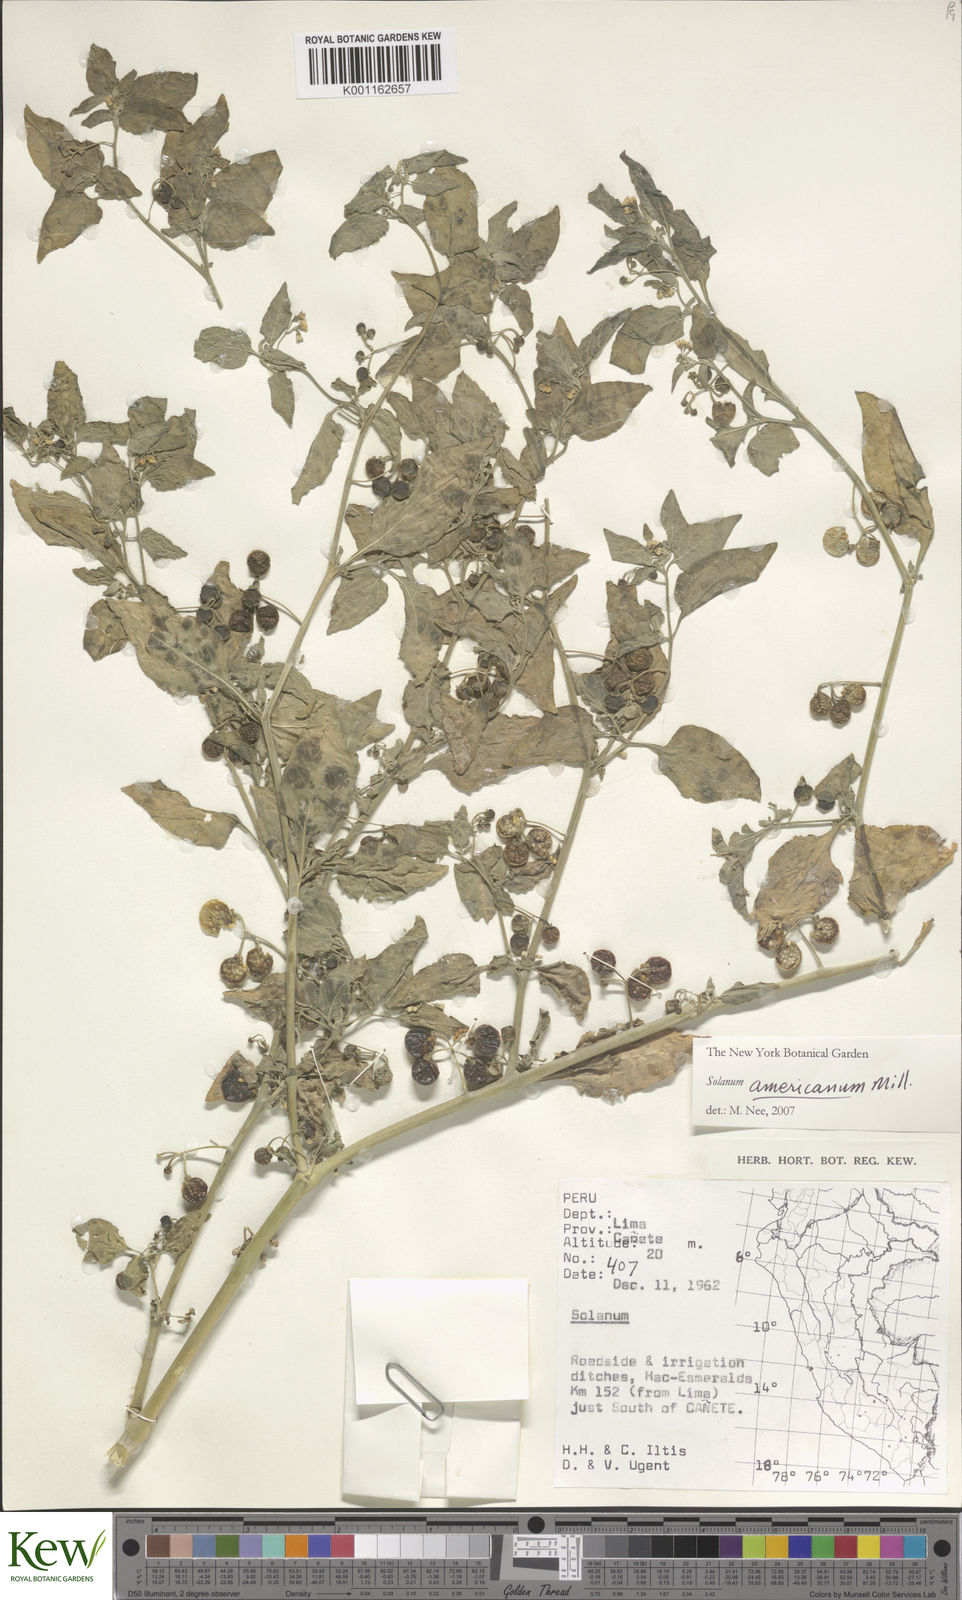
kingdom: Plantae
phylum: Tracheophyta
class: Magnoliopsida
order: Solanales
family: Solanaceae
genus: Solanum
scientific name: Solanum americanum
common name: American black nightshade
